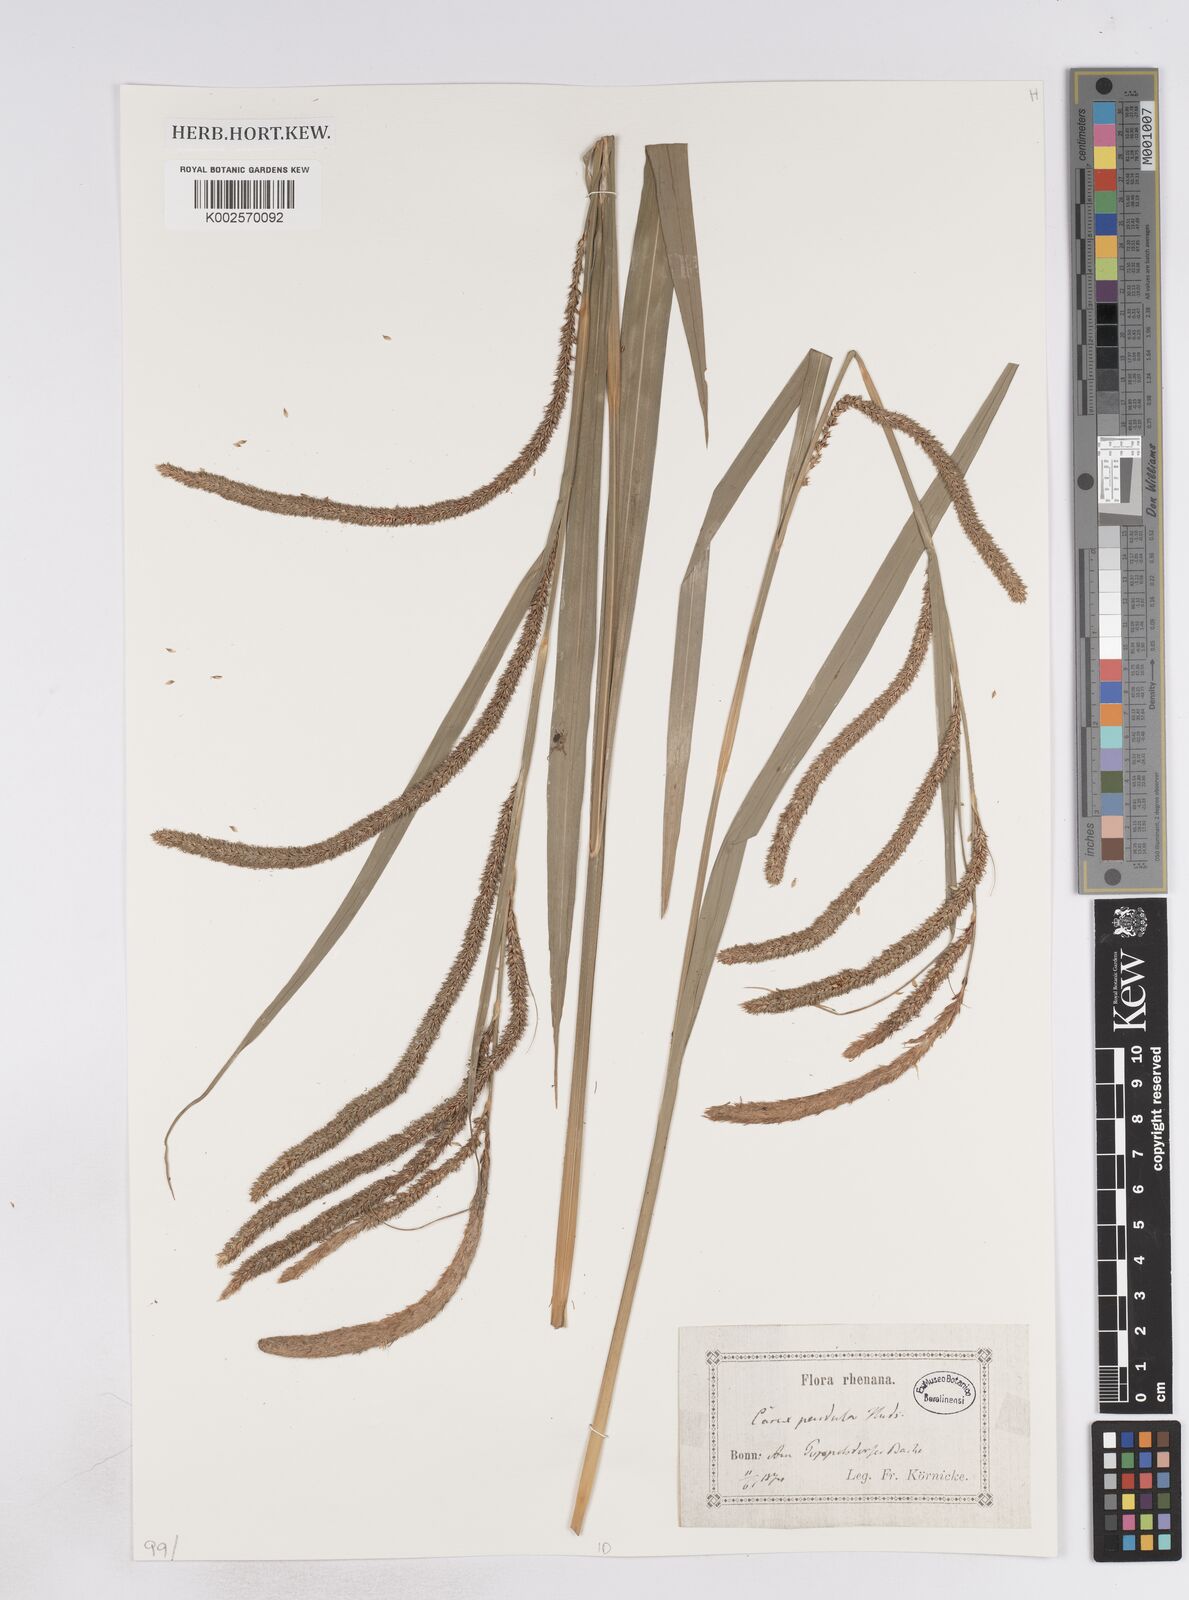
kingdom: Plantae
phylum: Tracheophyta
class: Liliopsida
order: Poales
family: Cyperaceae
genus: Carex
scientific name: Carex pendula
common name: Pendulous sedge
